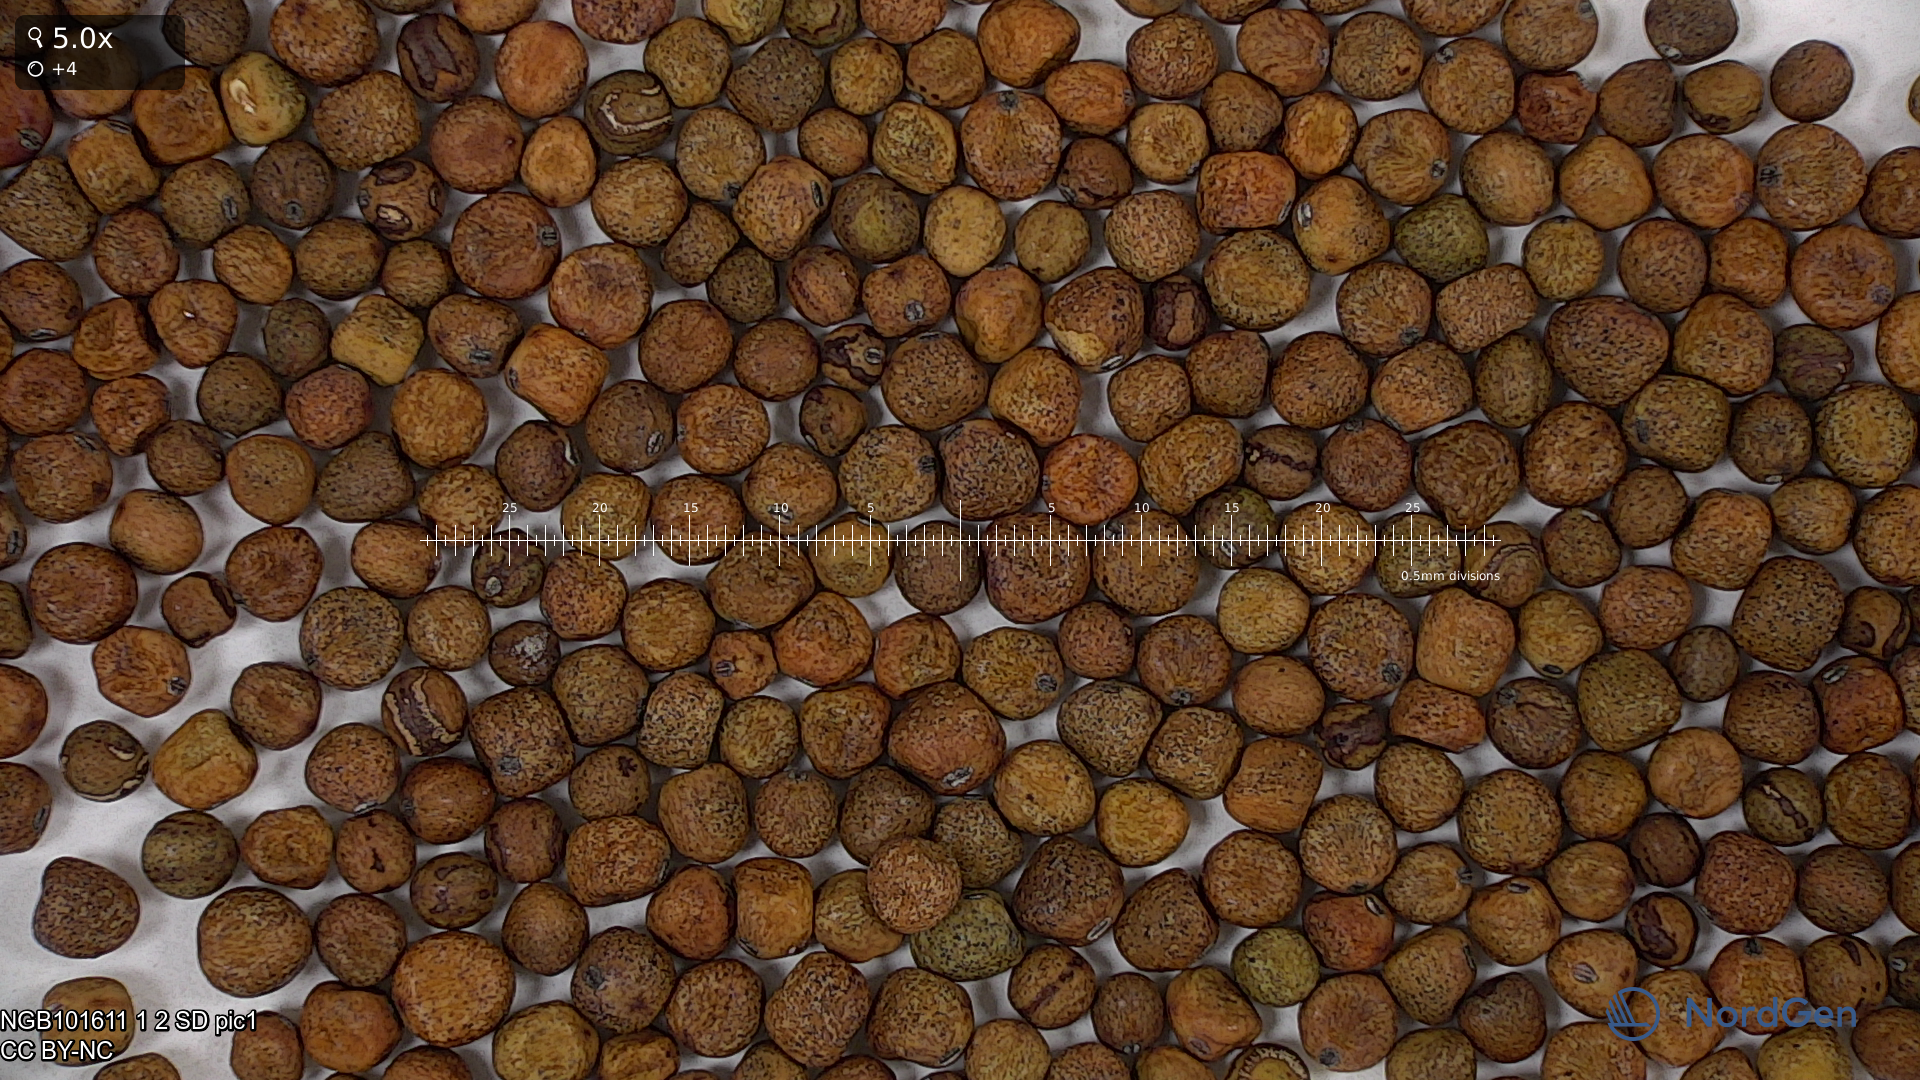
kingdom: Plantae
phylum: Tracheophyta
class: Magnoliopsida
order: Fabales
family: Fabaceae
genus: Lathyrus
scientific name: Lathyrus oleraceus
